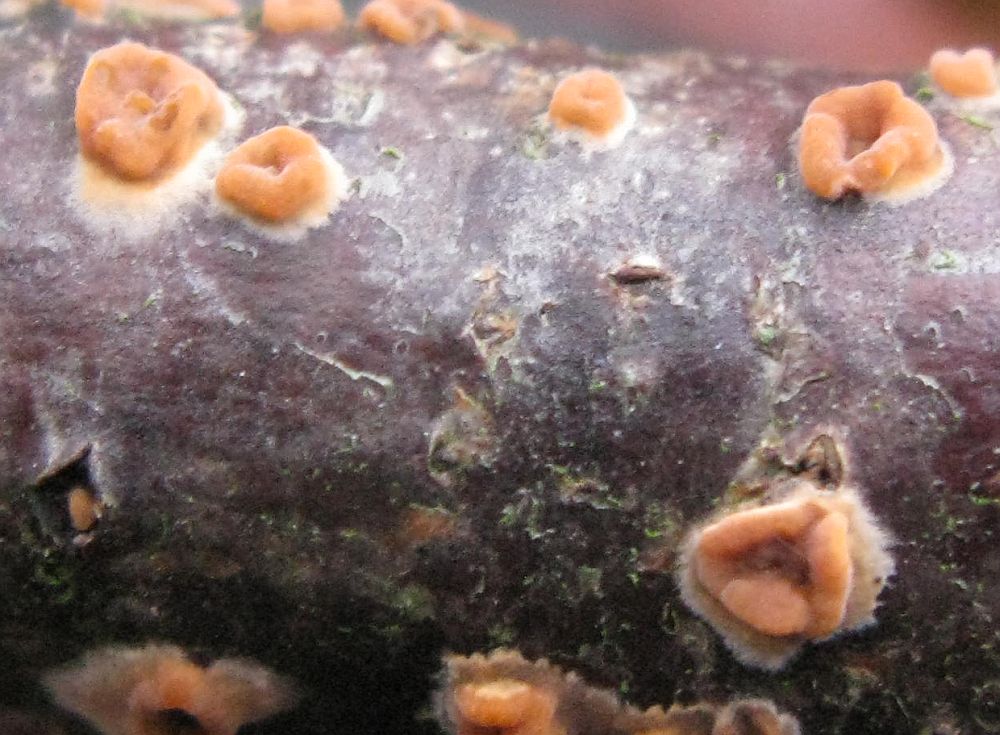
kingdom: Fungi
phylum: Basidiomycota
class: Agaricomycetes
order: Russulales
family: Peniophoraceae
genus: Peniophora
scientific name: Peniophora incarnata
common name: laksefarvet voksskind
